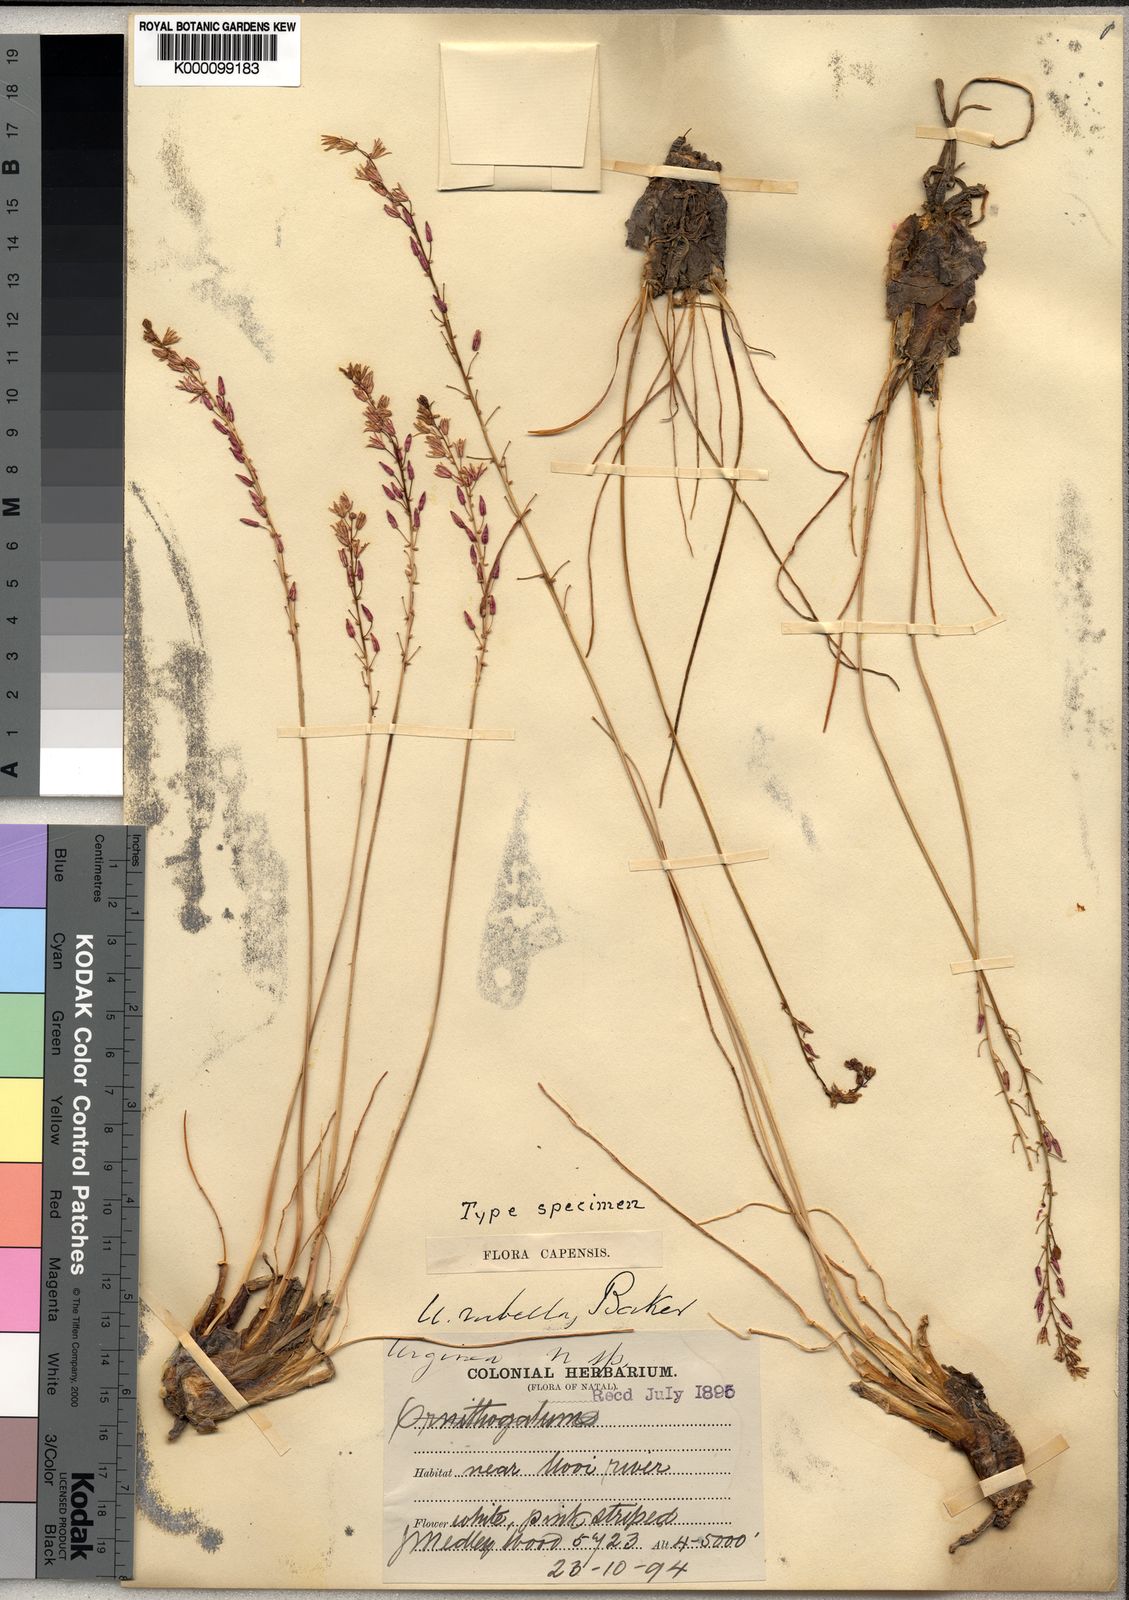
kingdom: Plantae
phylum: Tracheophyta
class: Liliopsida
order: Asparagales
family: Asparagaceae
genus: Drimia
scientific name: Drimia modesta
